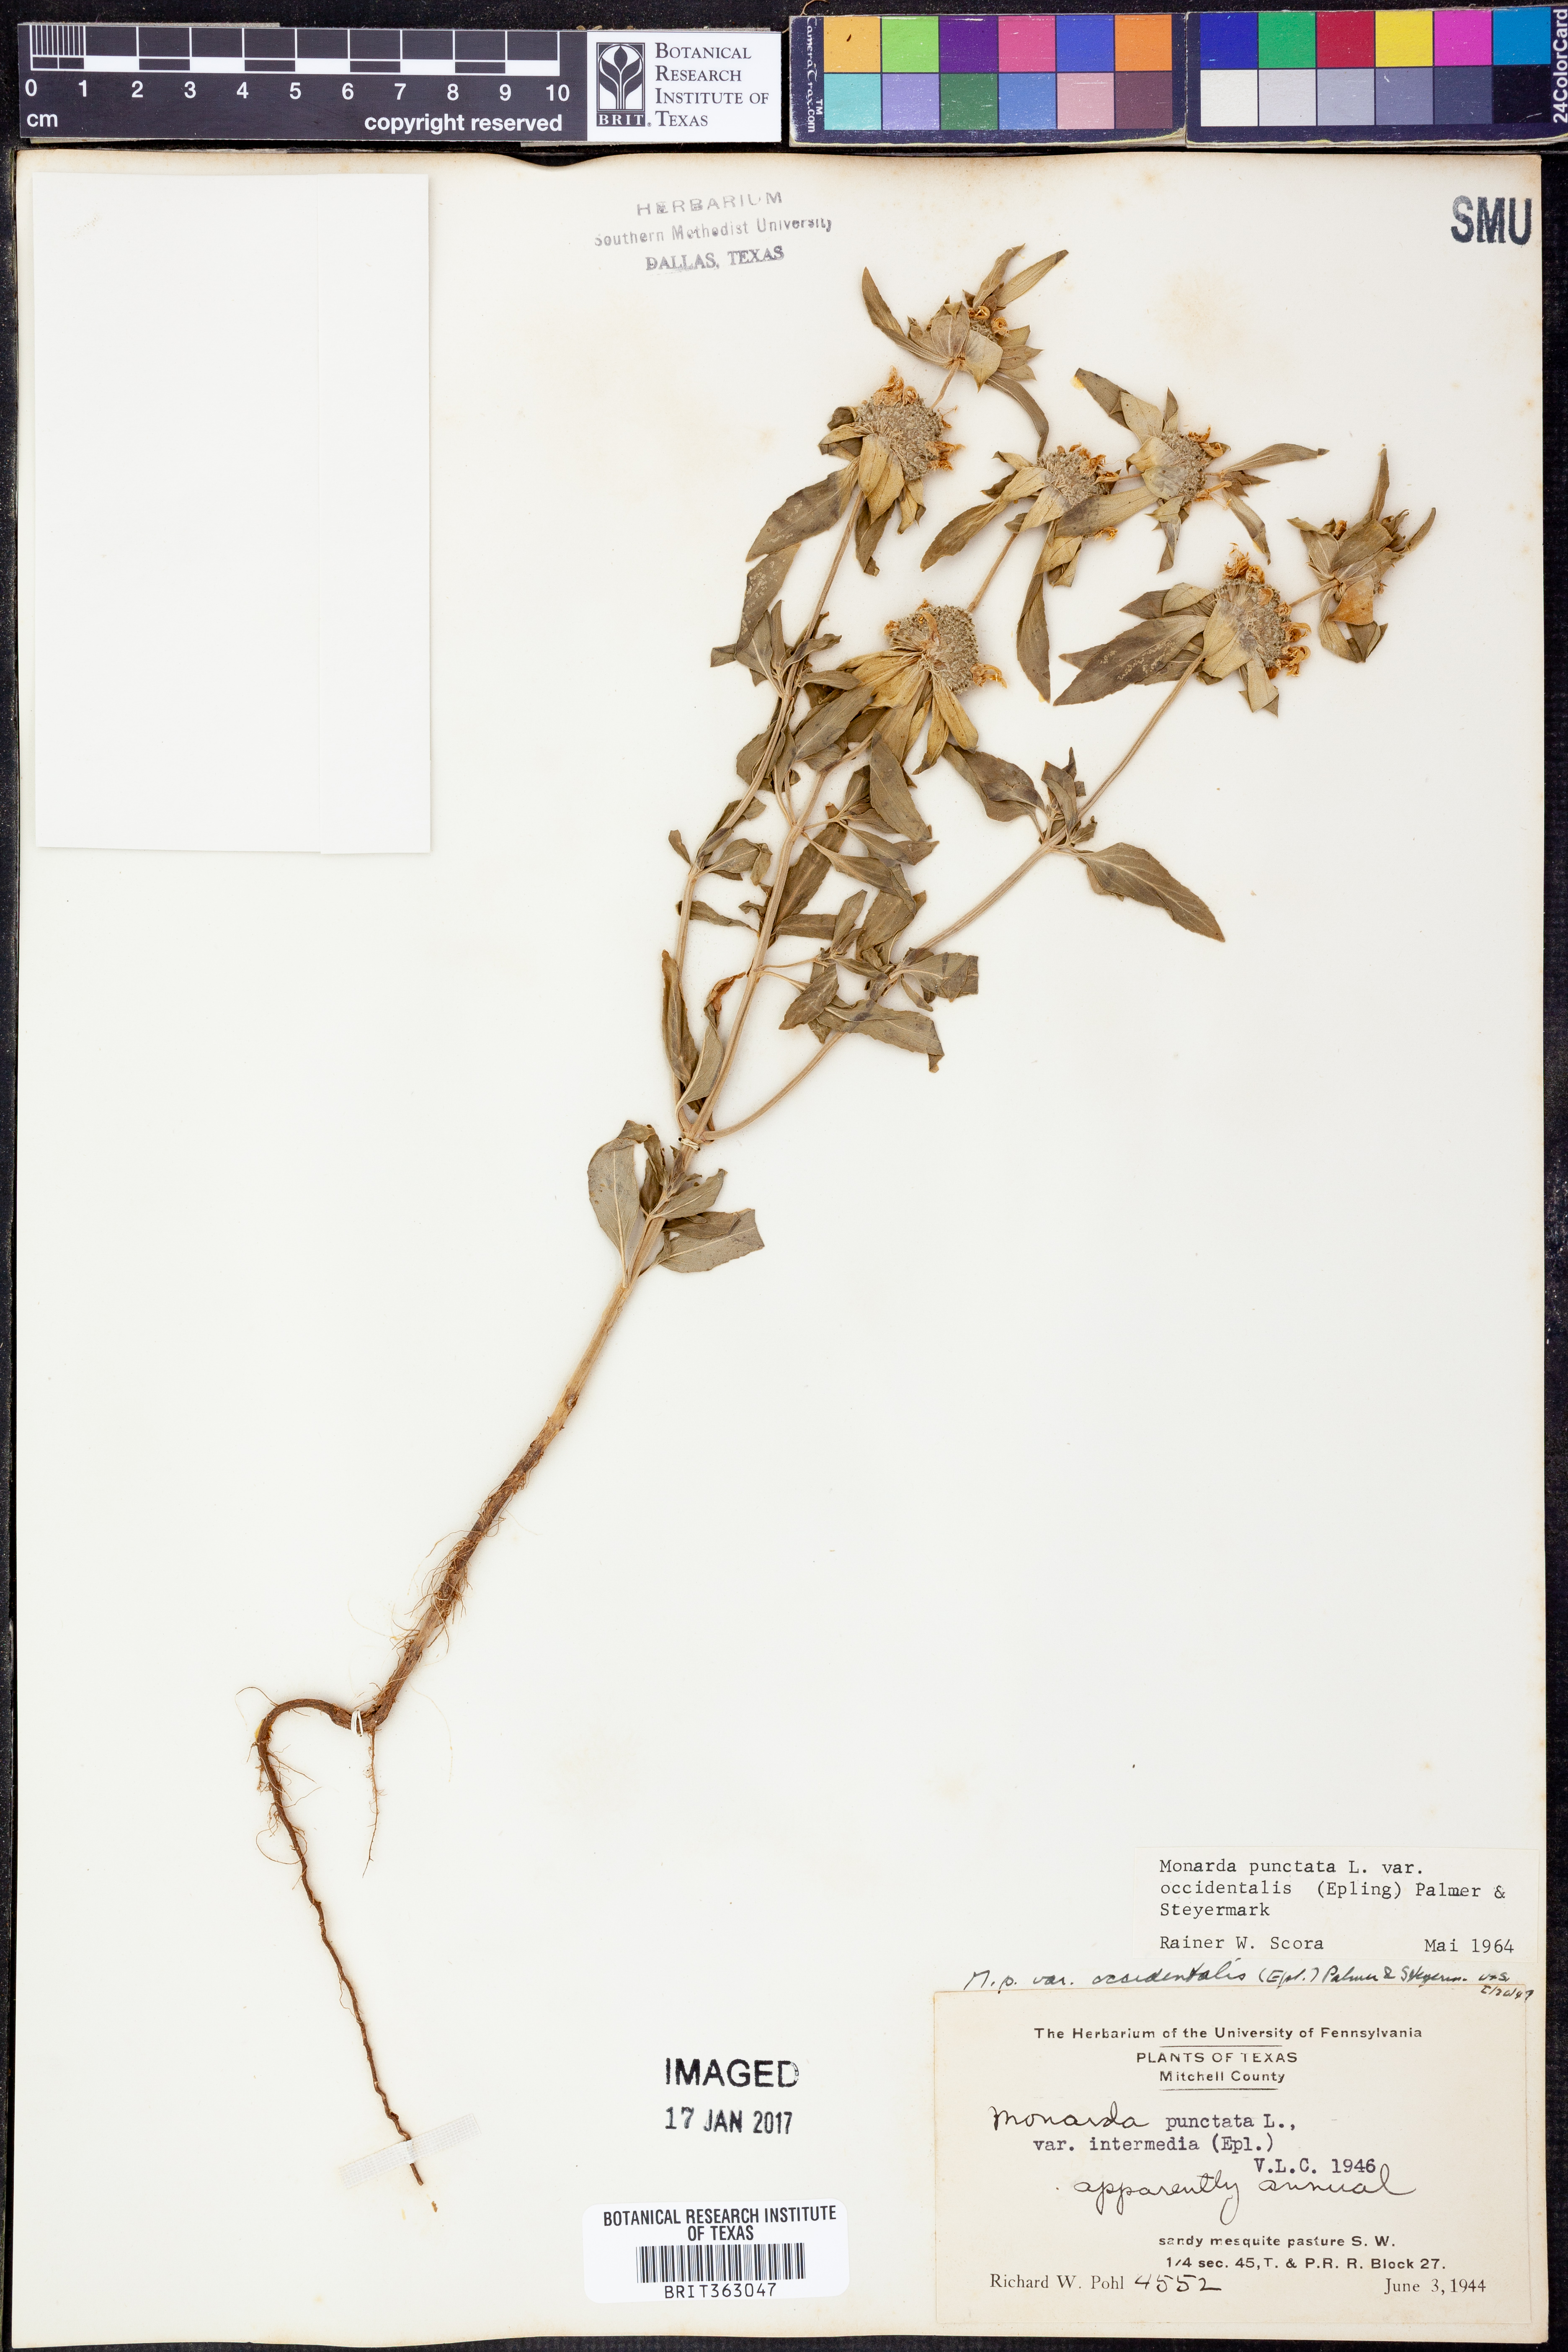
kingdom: Plantae
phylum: Tracheophyta
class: Magnoliopsida
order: Lamiales
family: Lamiaceae
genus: Monarda
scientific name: Monarda punctata
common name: Dotted monarda
